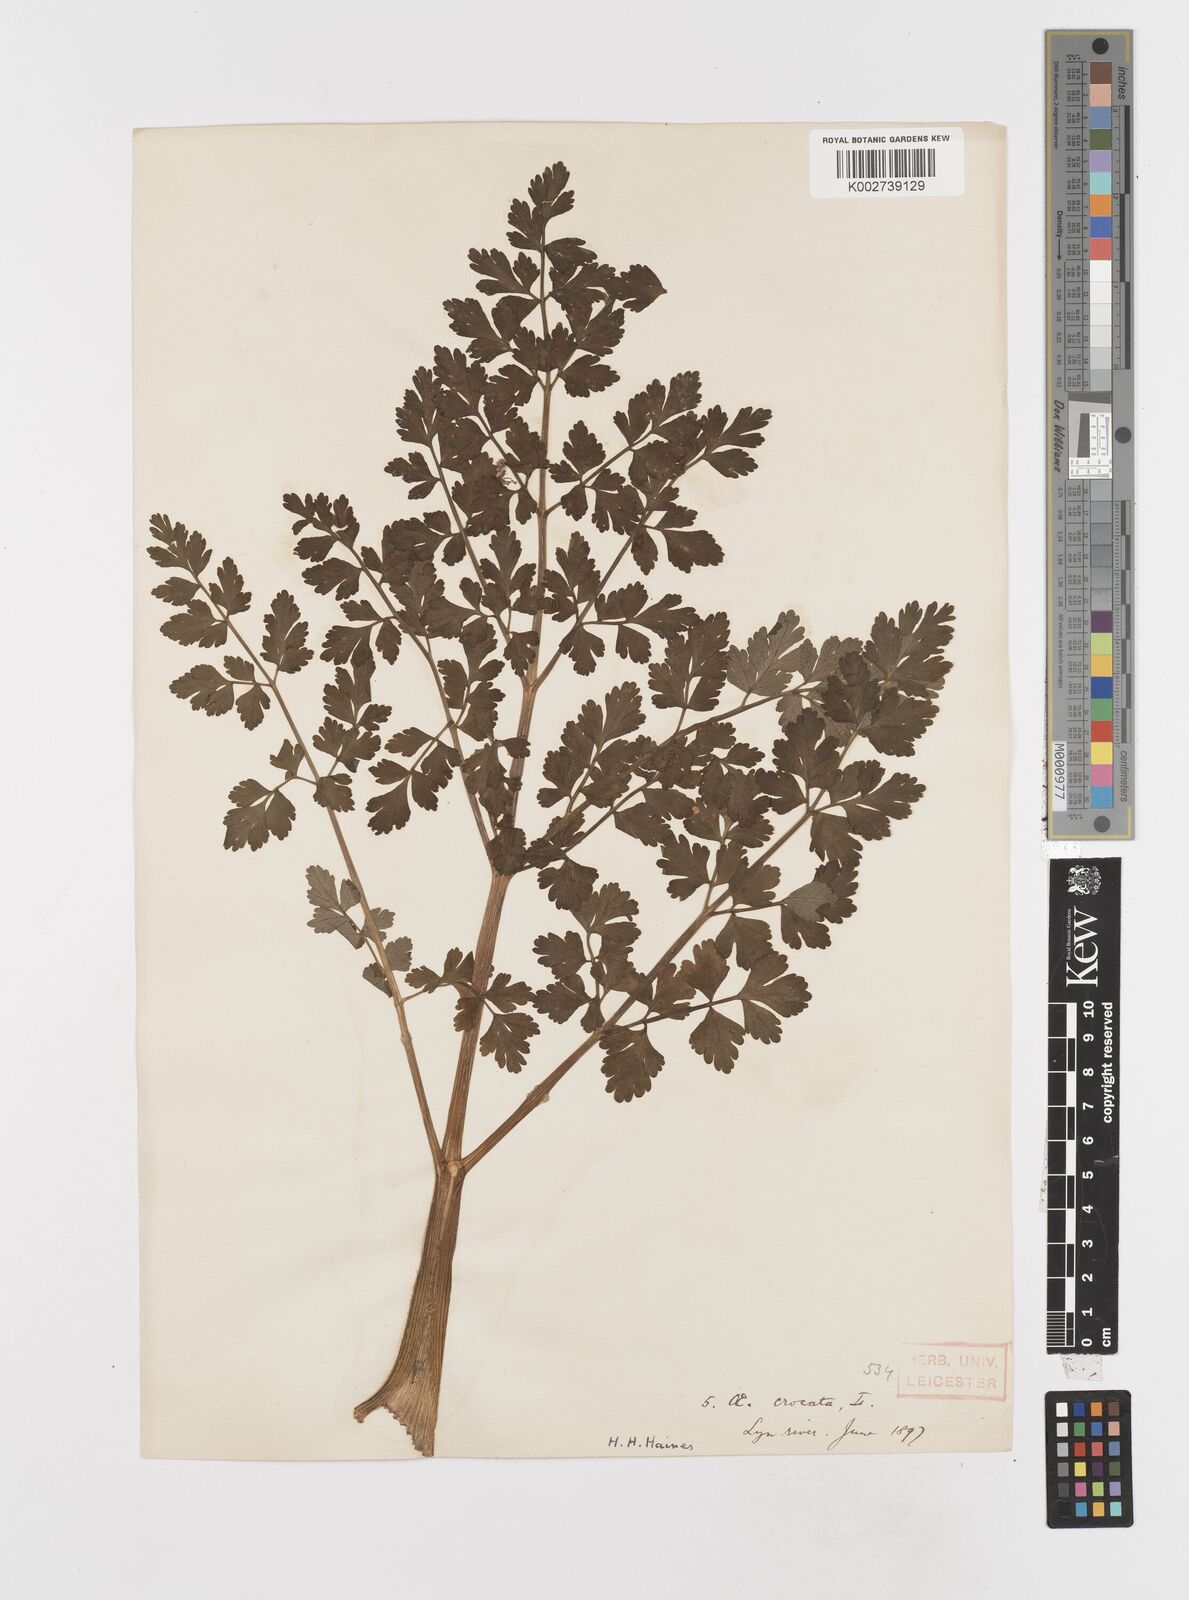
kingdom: Plantae
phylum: Tracheophyta
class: Magnoliopsida
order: Apiales
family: Apiaceae
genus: Oenanthe
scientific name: Oenanthe crocata
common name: Hemlock water-dropwort
